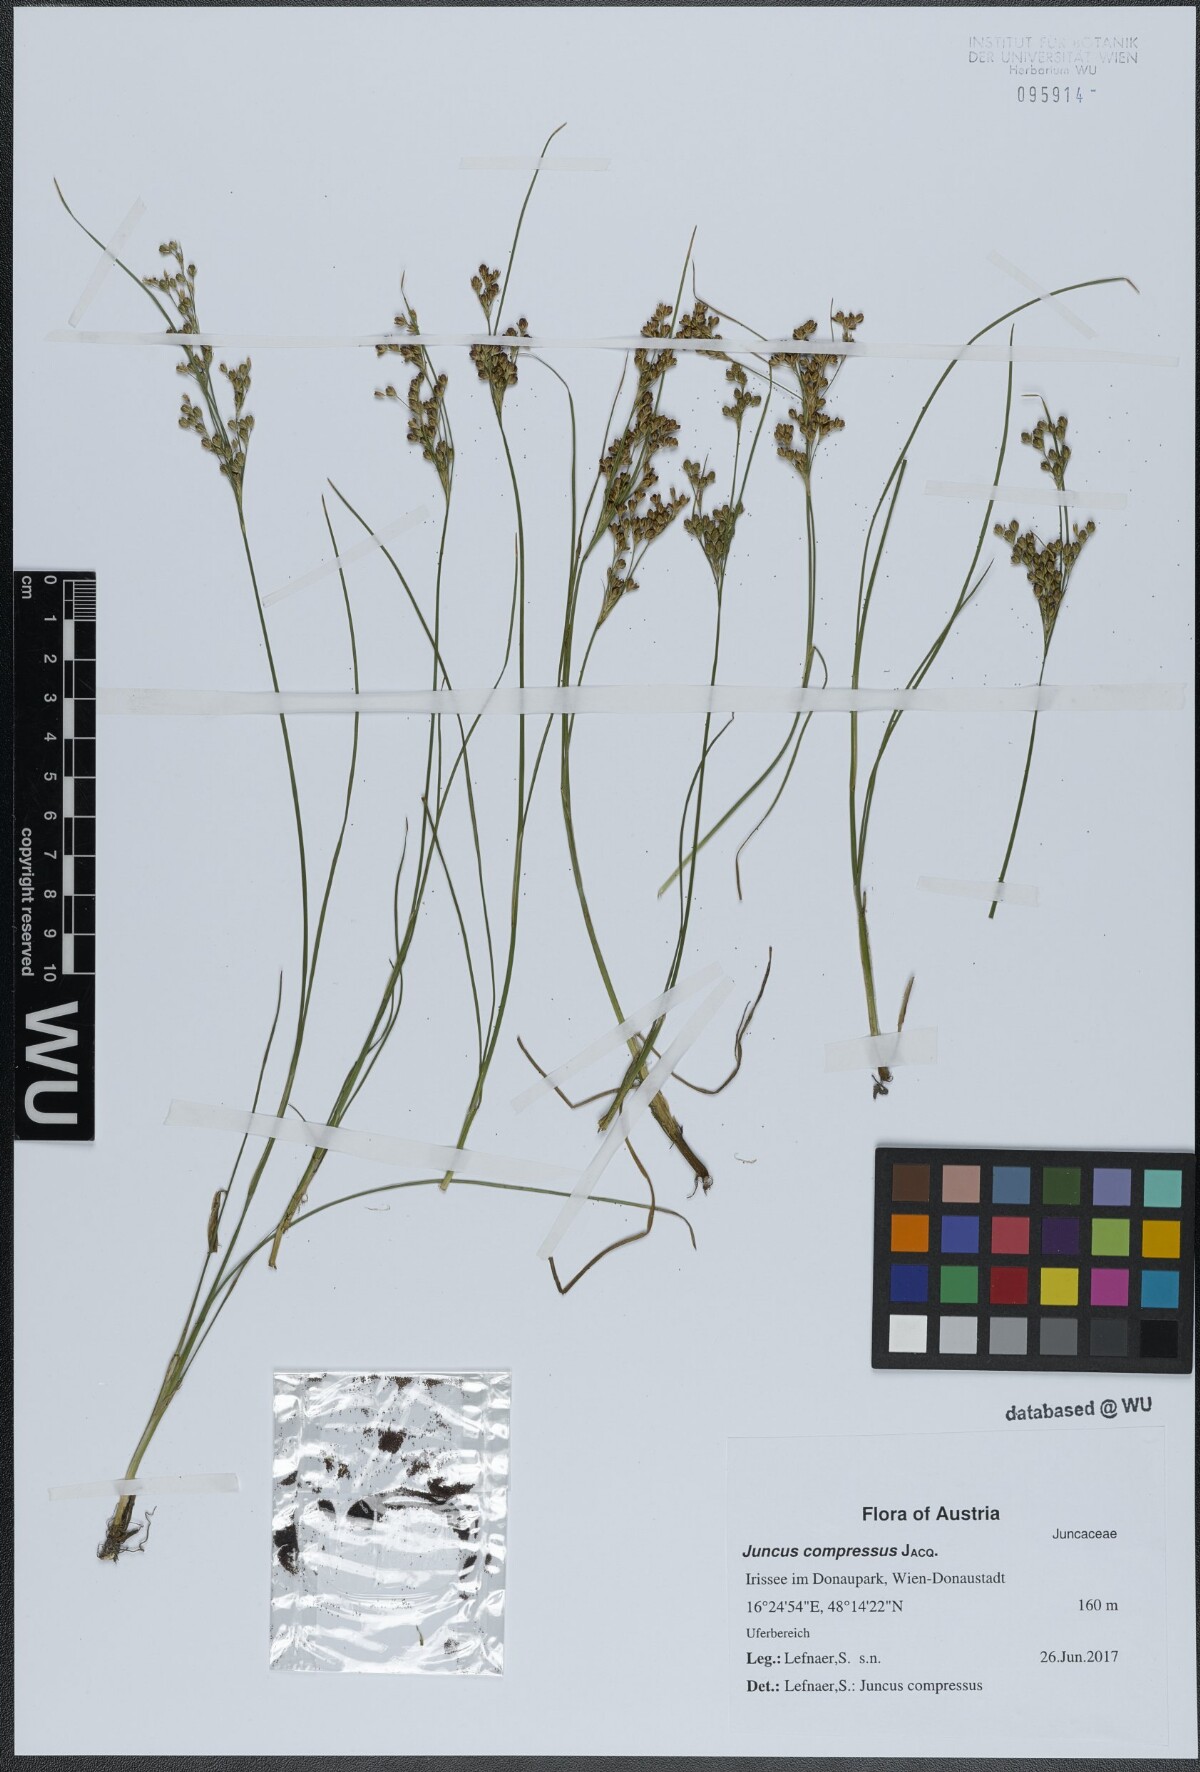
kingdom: Plantae
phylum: Tracheophyta
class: Liliopsida
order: Poales
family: Juncaceae
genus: Juncus
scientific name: Juncus compressus
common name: Round-fruited rush
